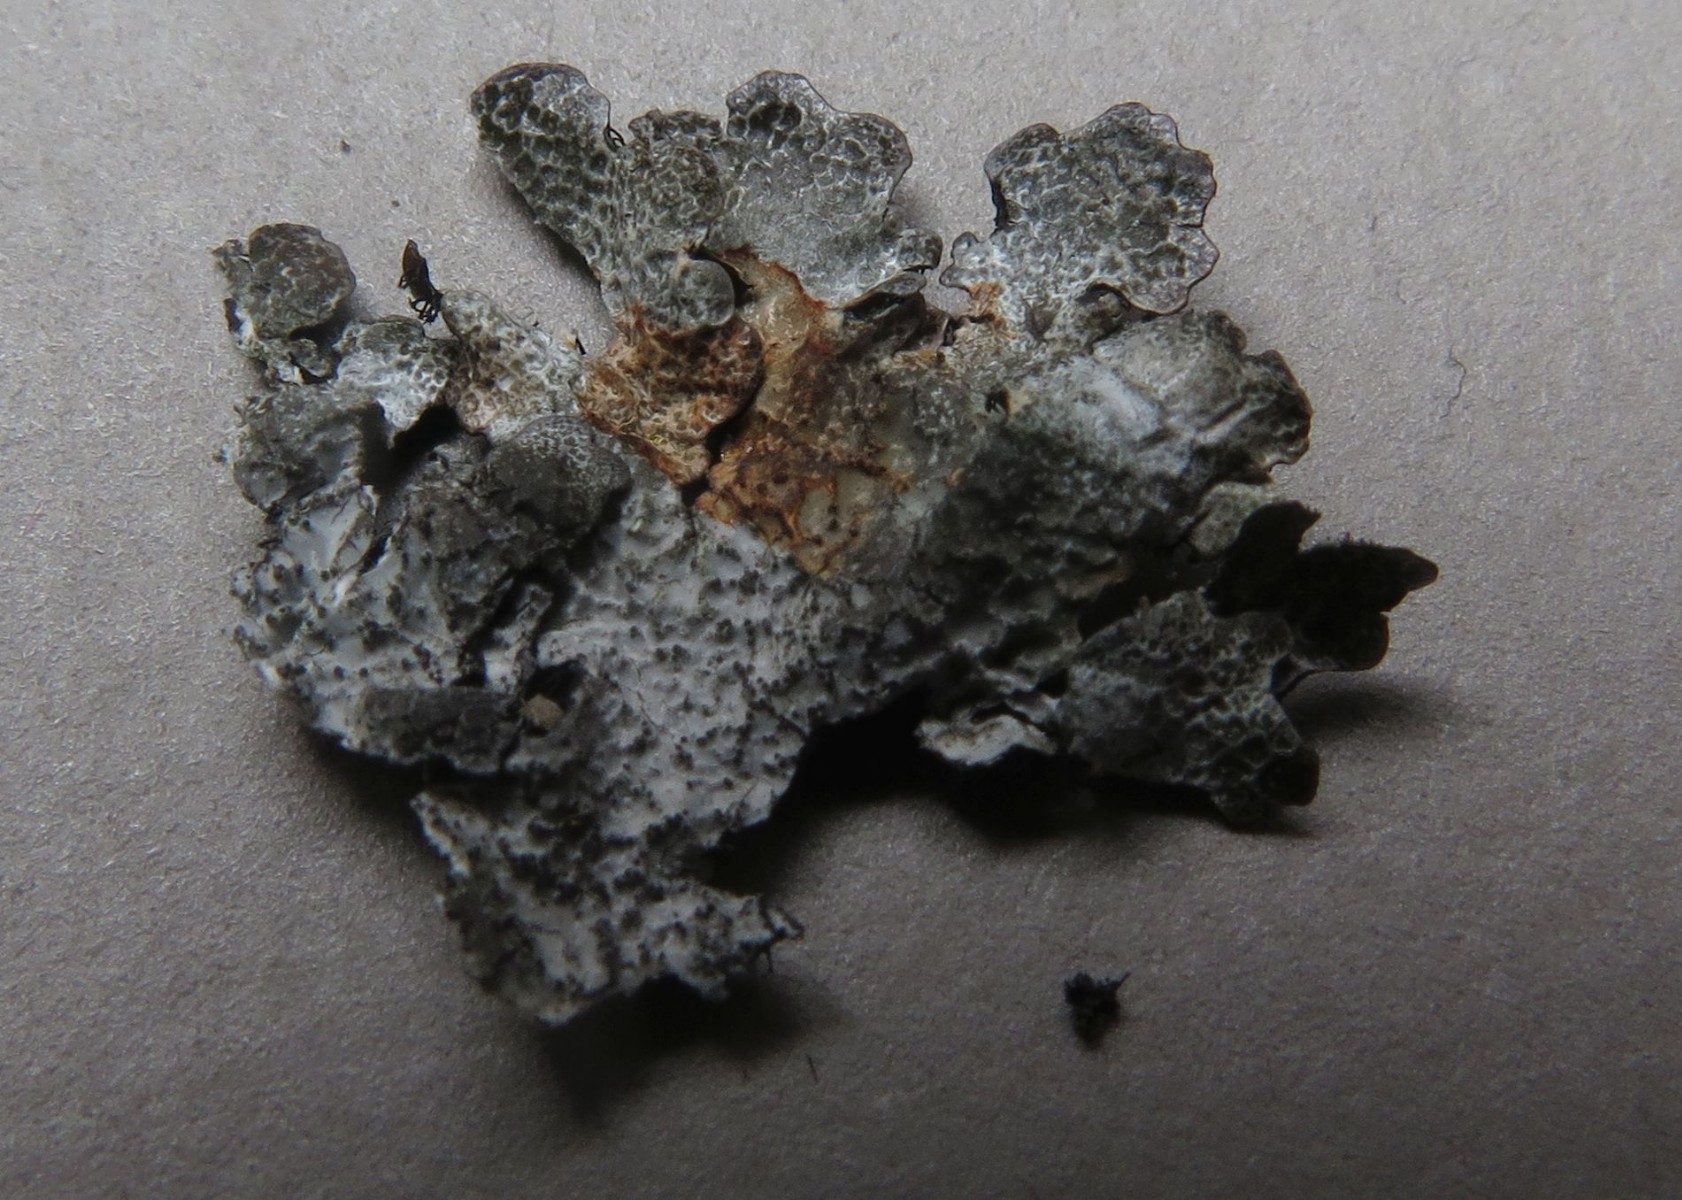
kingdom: Fungi
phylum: Ascomycota
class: Lecanoromycetes
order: Lecanorales
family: Parmeliaceae
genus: Parmelia
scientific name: Parmelia saxatilis
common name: farve-skållav
